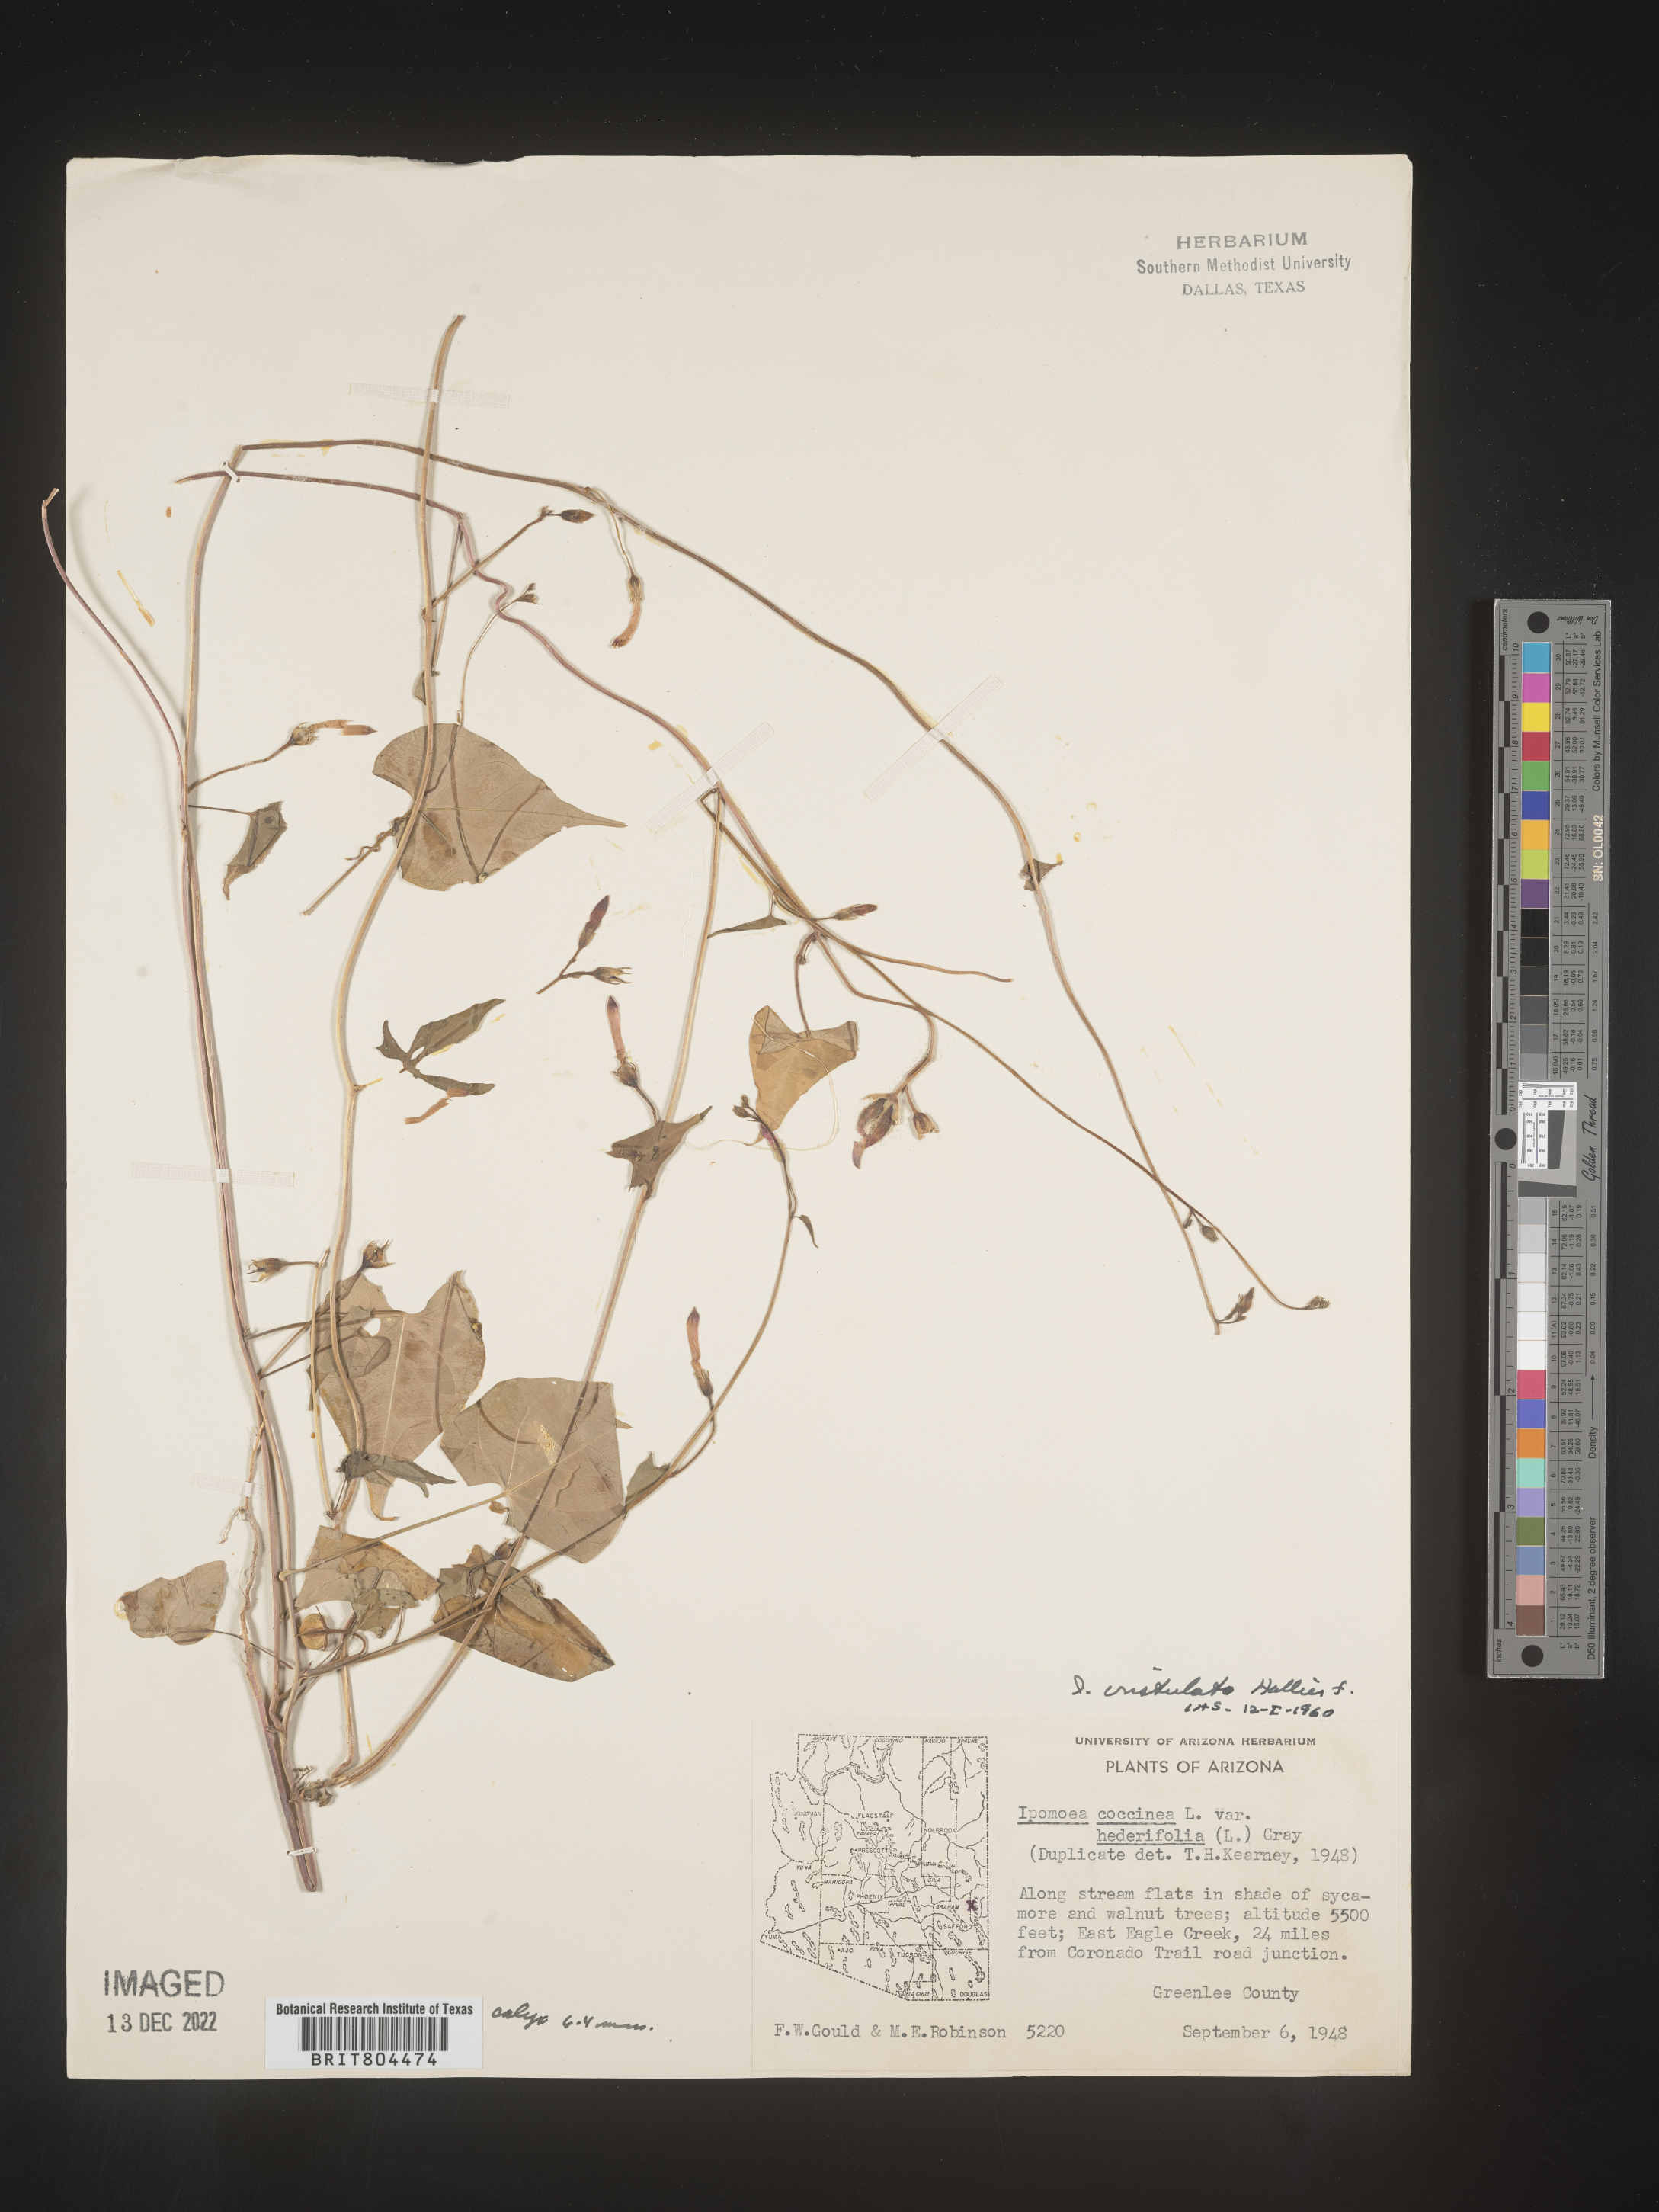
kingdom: Plantae
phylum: Tracheophyta
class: Magnoliopsida
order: Solanales
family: Convolvulaceae
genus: Ipomoea
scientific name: Ipomoea cristulata
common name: Trans-pecos morning-glory
